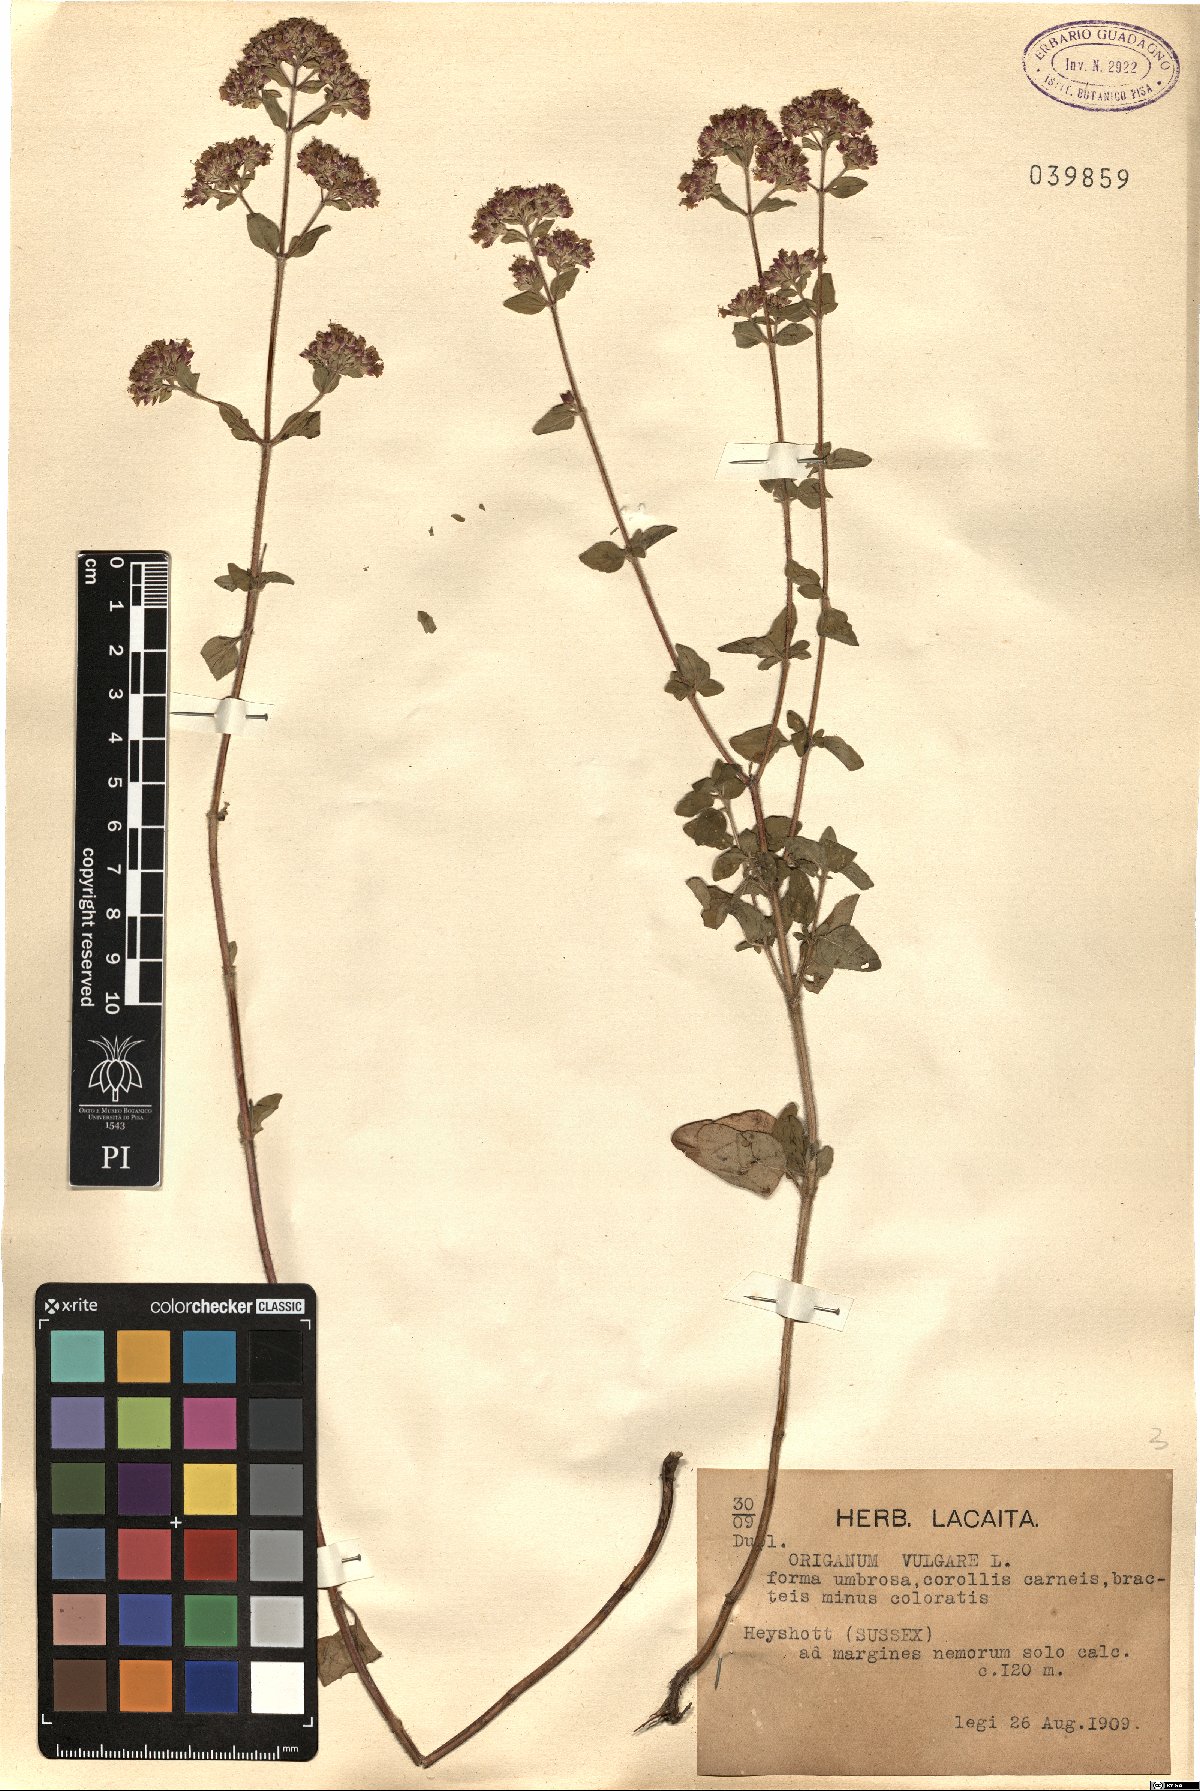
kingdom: Plantae
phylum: Tracheophyta
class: Magnoliopsida
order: Lamiales
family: Lamiaceae
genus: Origanum
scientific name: Origanum vulgare
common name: Wild marjoram
